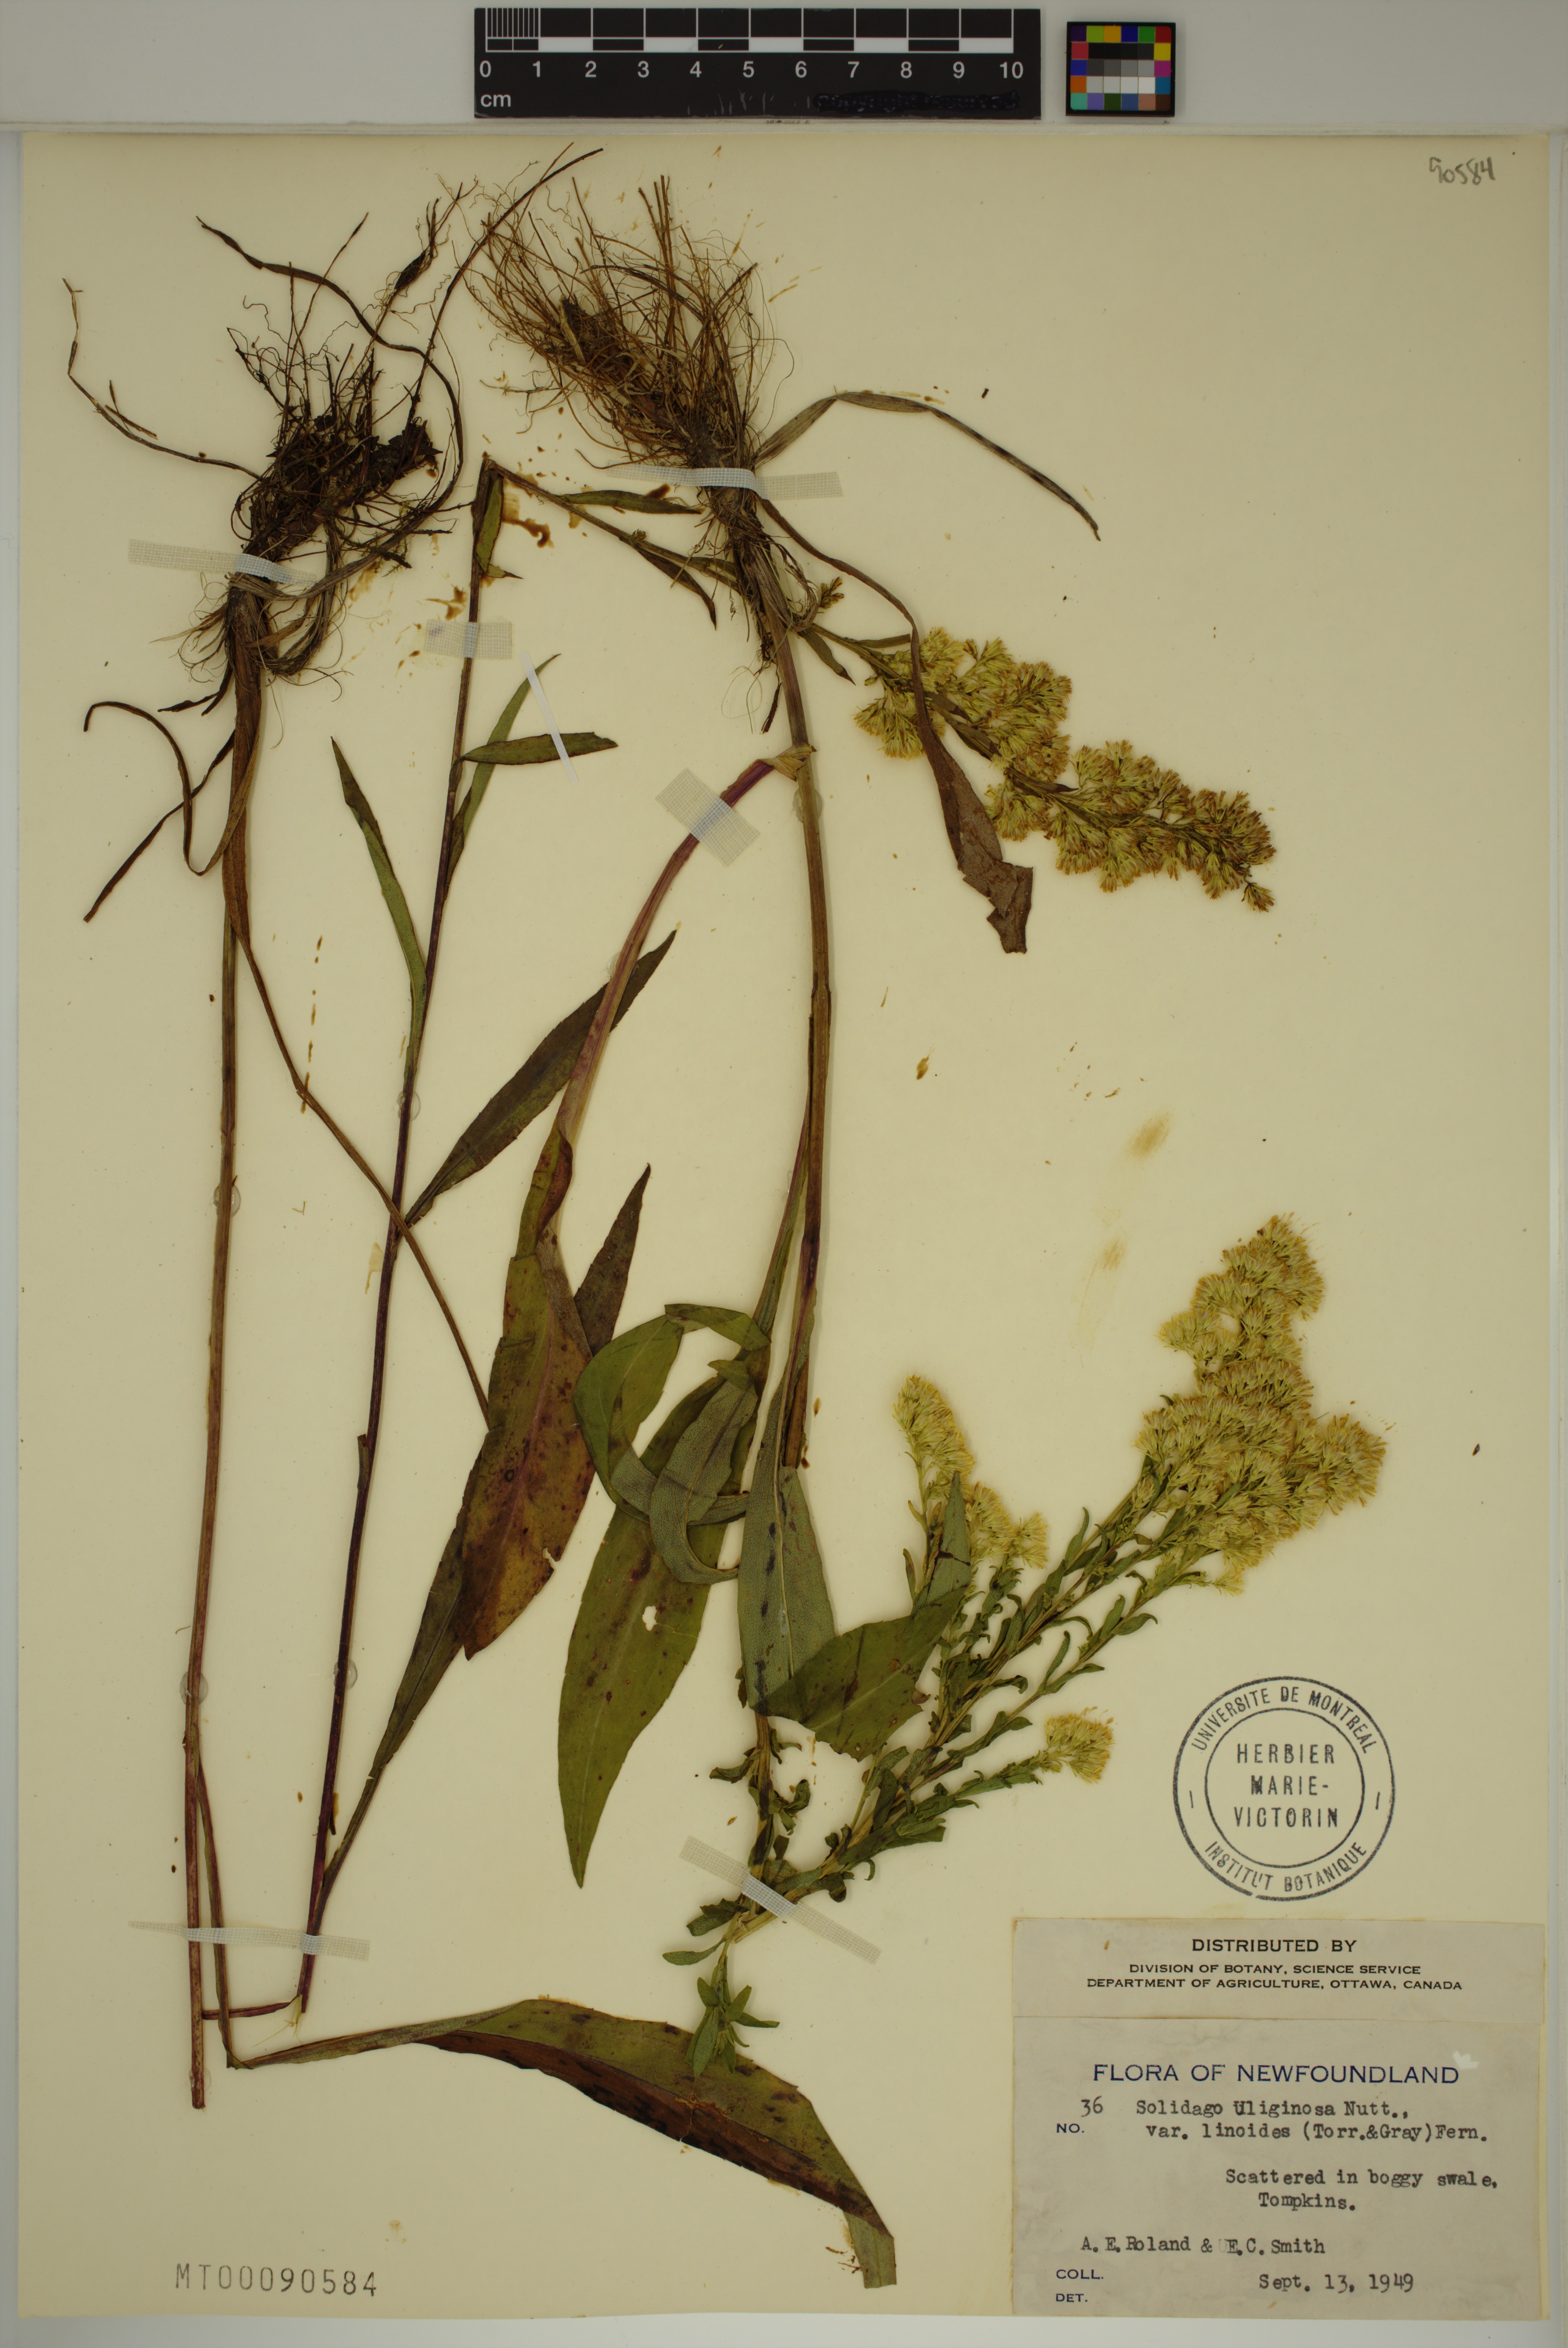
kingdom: Plantae
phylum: Tracheophyta
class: Magnoliopsida
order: Asterales
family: Asteraceae
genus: Solidago
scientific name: Solidago uliginosa
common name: Bog goldenrod
